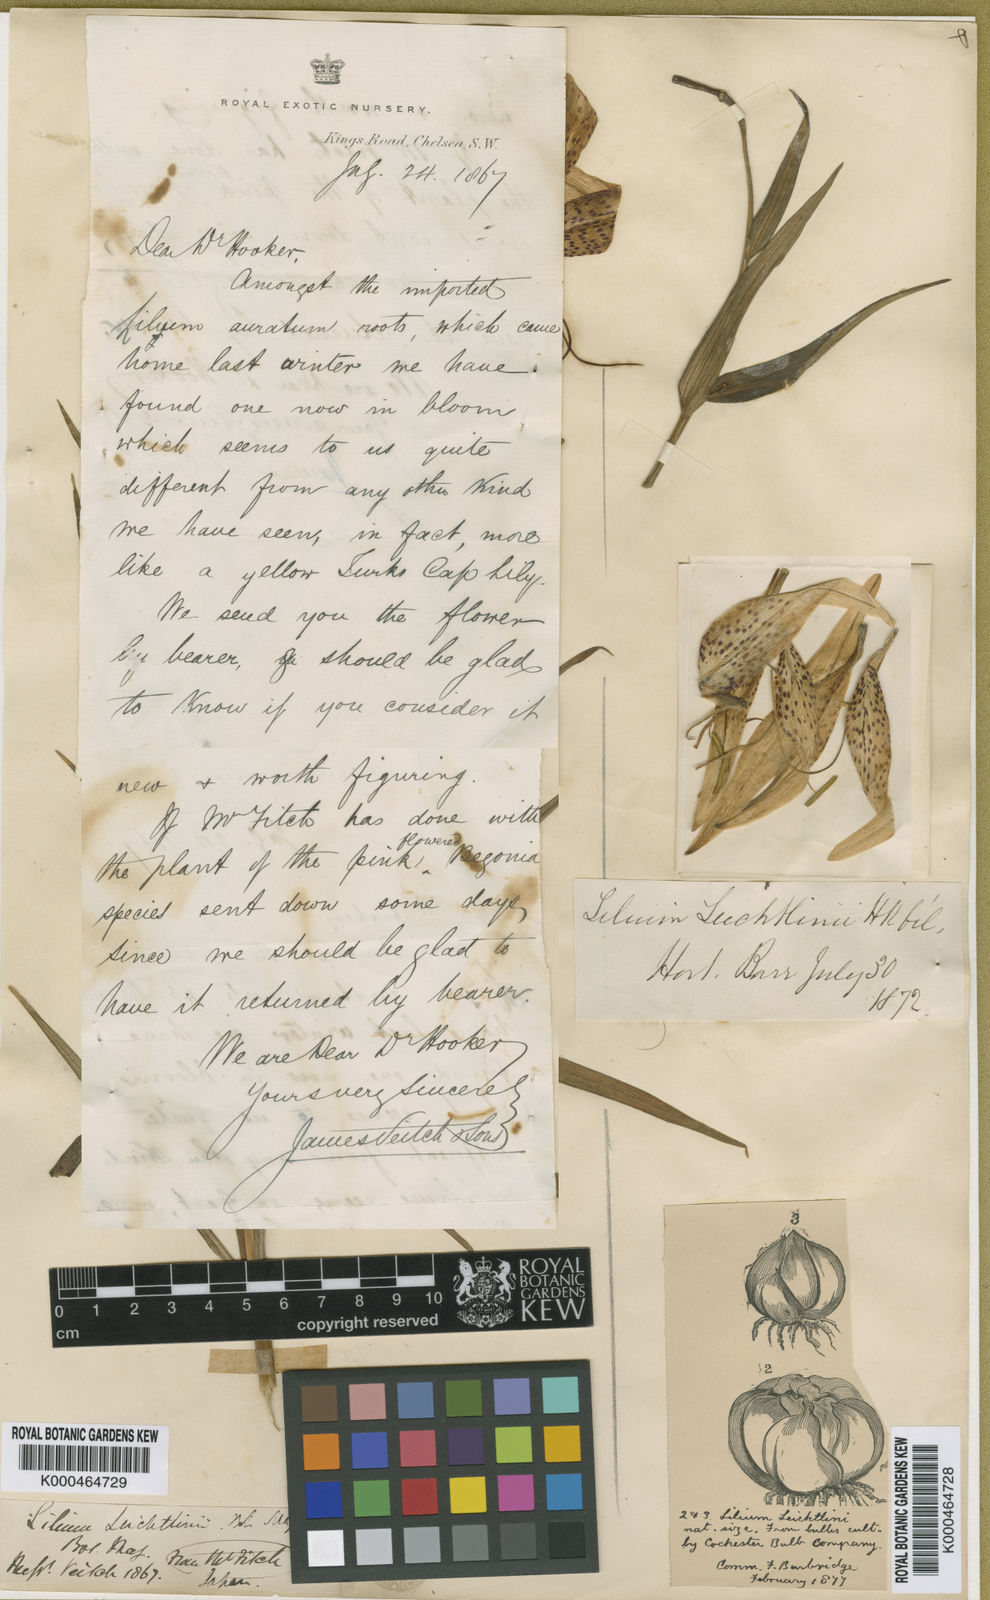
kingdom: Plantae
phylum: Tracheophyta
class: Liliopsida
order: Liliales
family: Liliaceae
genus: Lilium
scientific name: Lilium leichtlinii
